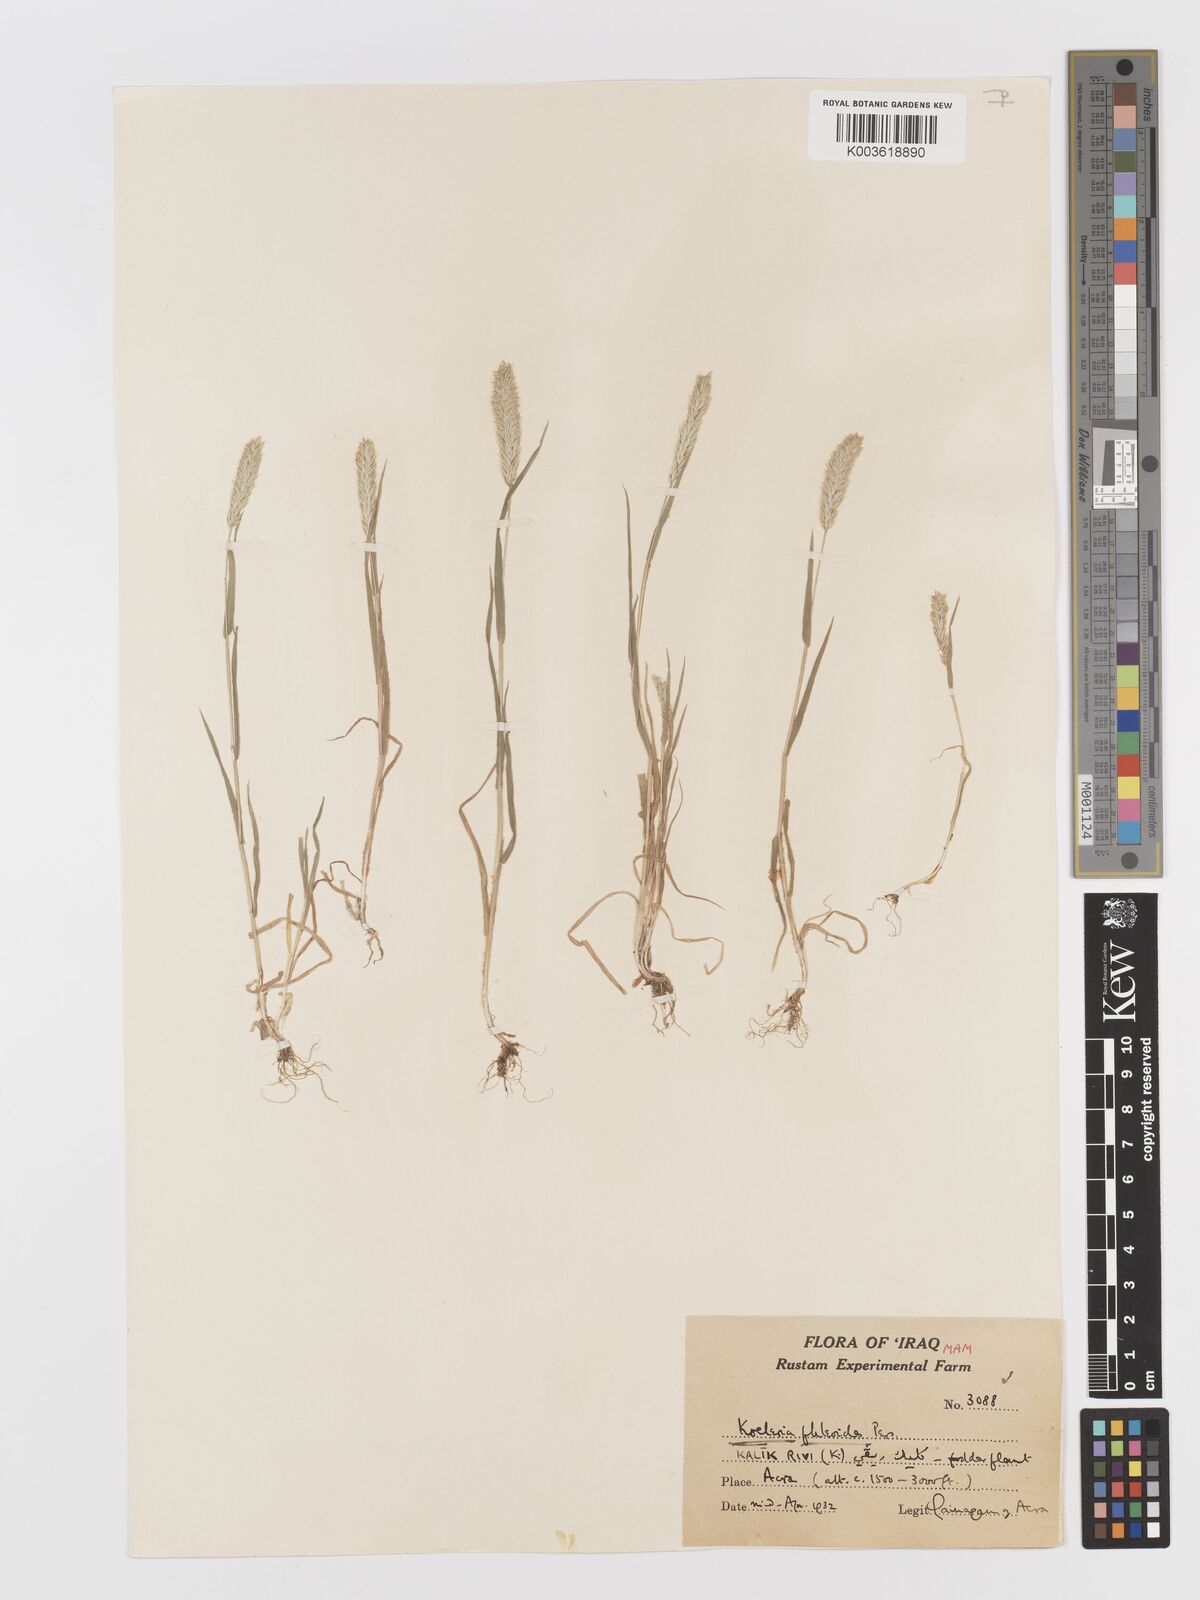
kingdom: Plantae
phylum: Tracheophyta
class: Liliopsida
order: Poales
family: Poaceae
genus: Rostraria
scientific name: Rostraria cristata
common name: Mediterranean hair-grass
